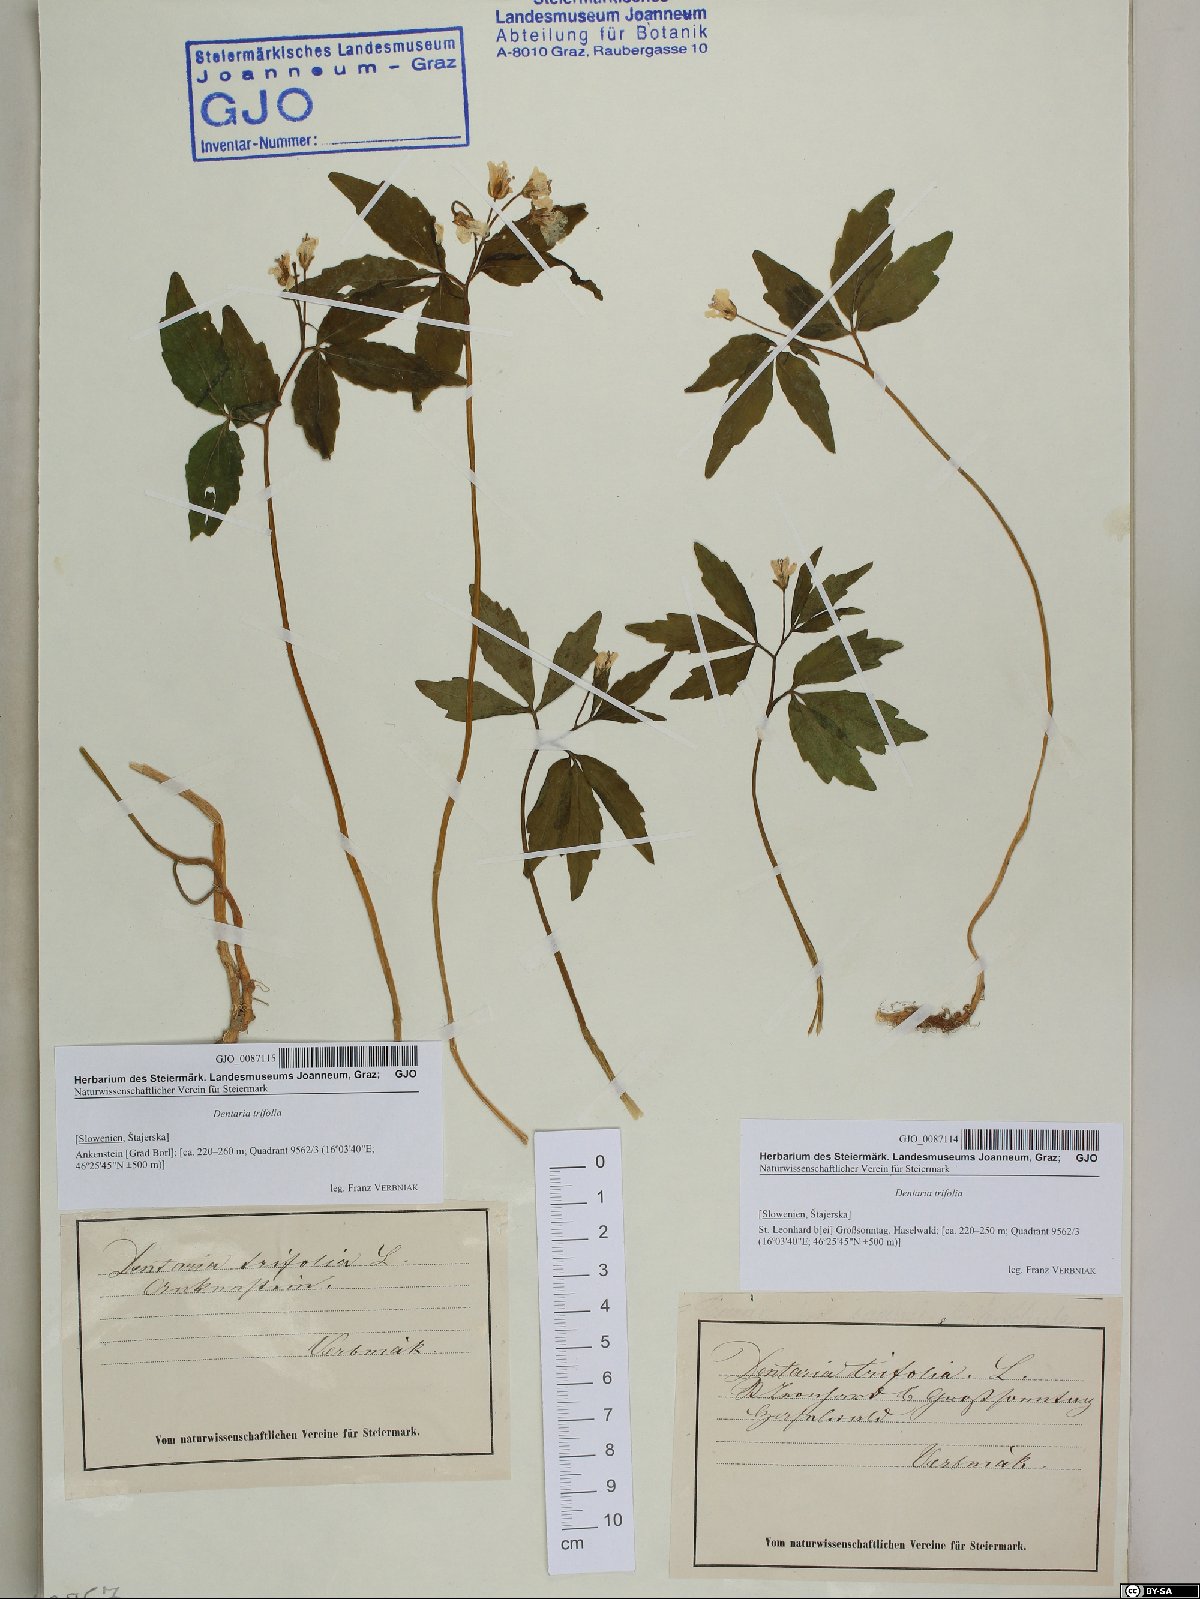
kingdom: Plantae
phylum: Tracheophyta
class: Magnoliopsida
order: Brassicales
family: Brassicaceae
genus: Cardamine
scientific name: Cardamine waldsteinii
